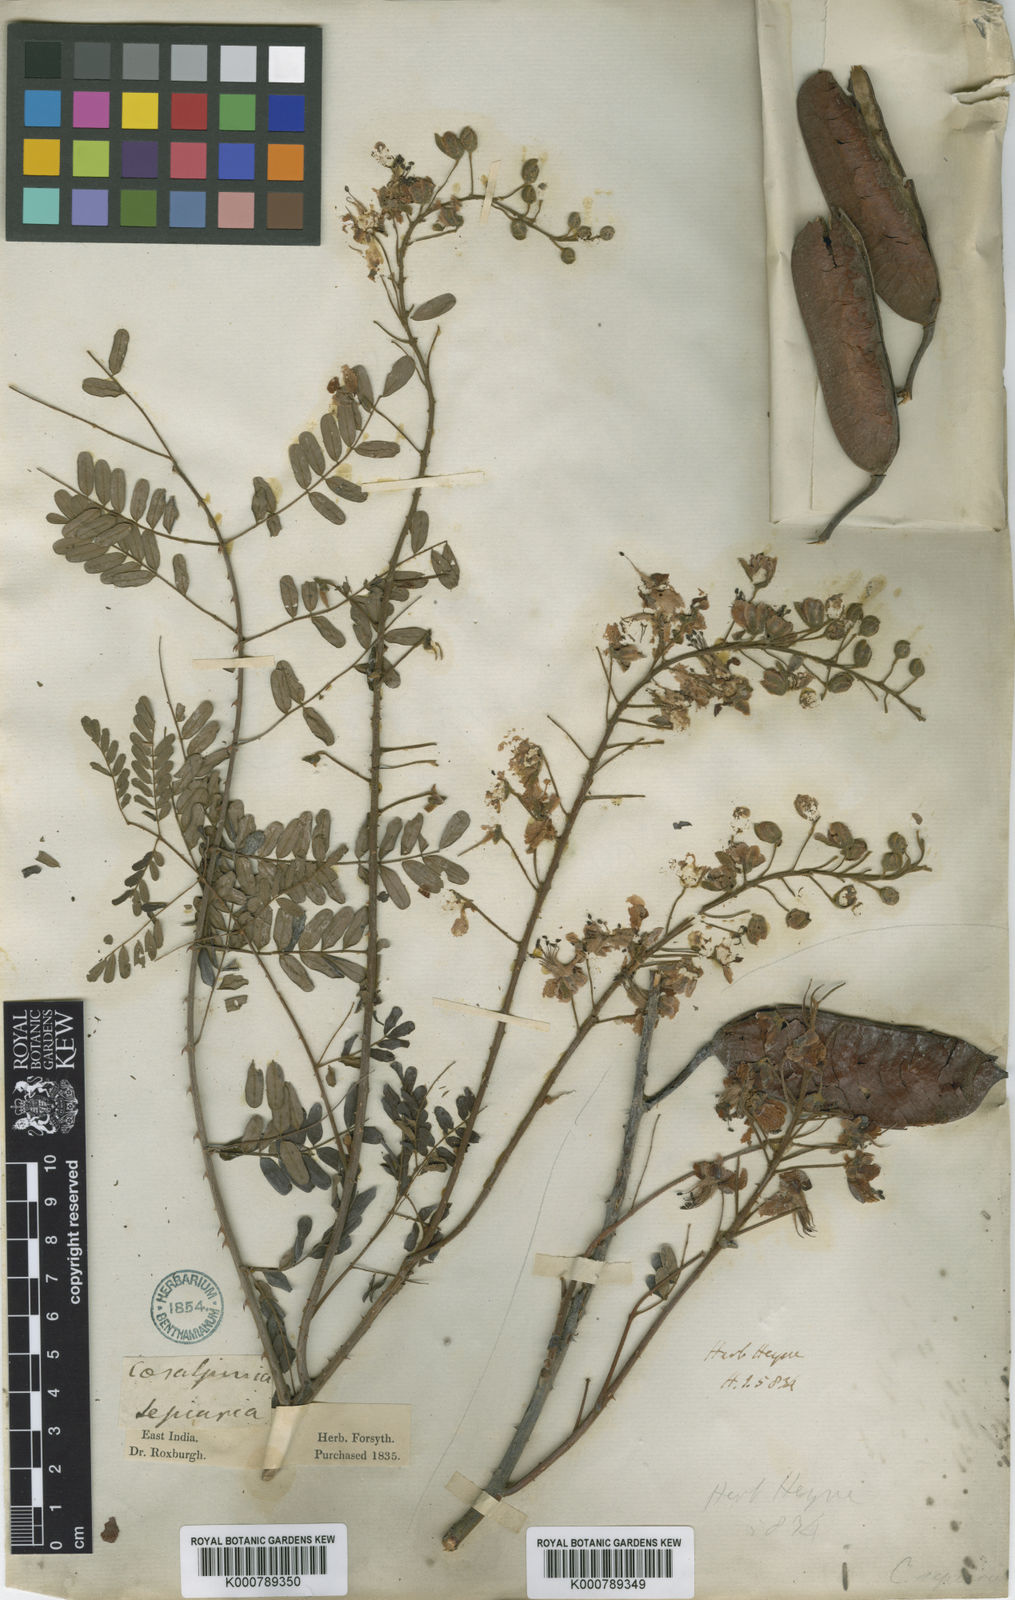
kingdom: Plantae
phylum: Tracheophyta
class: Magnoliopsida
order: Fabales
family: Fabaceae
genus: Biancaea
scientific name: Biancaea decapetala
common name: Cat's claw
